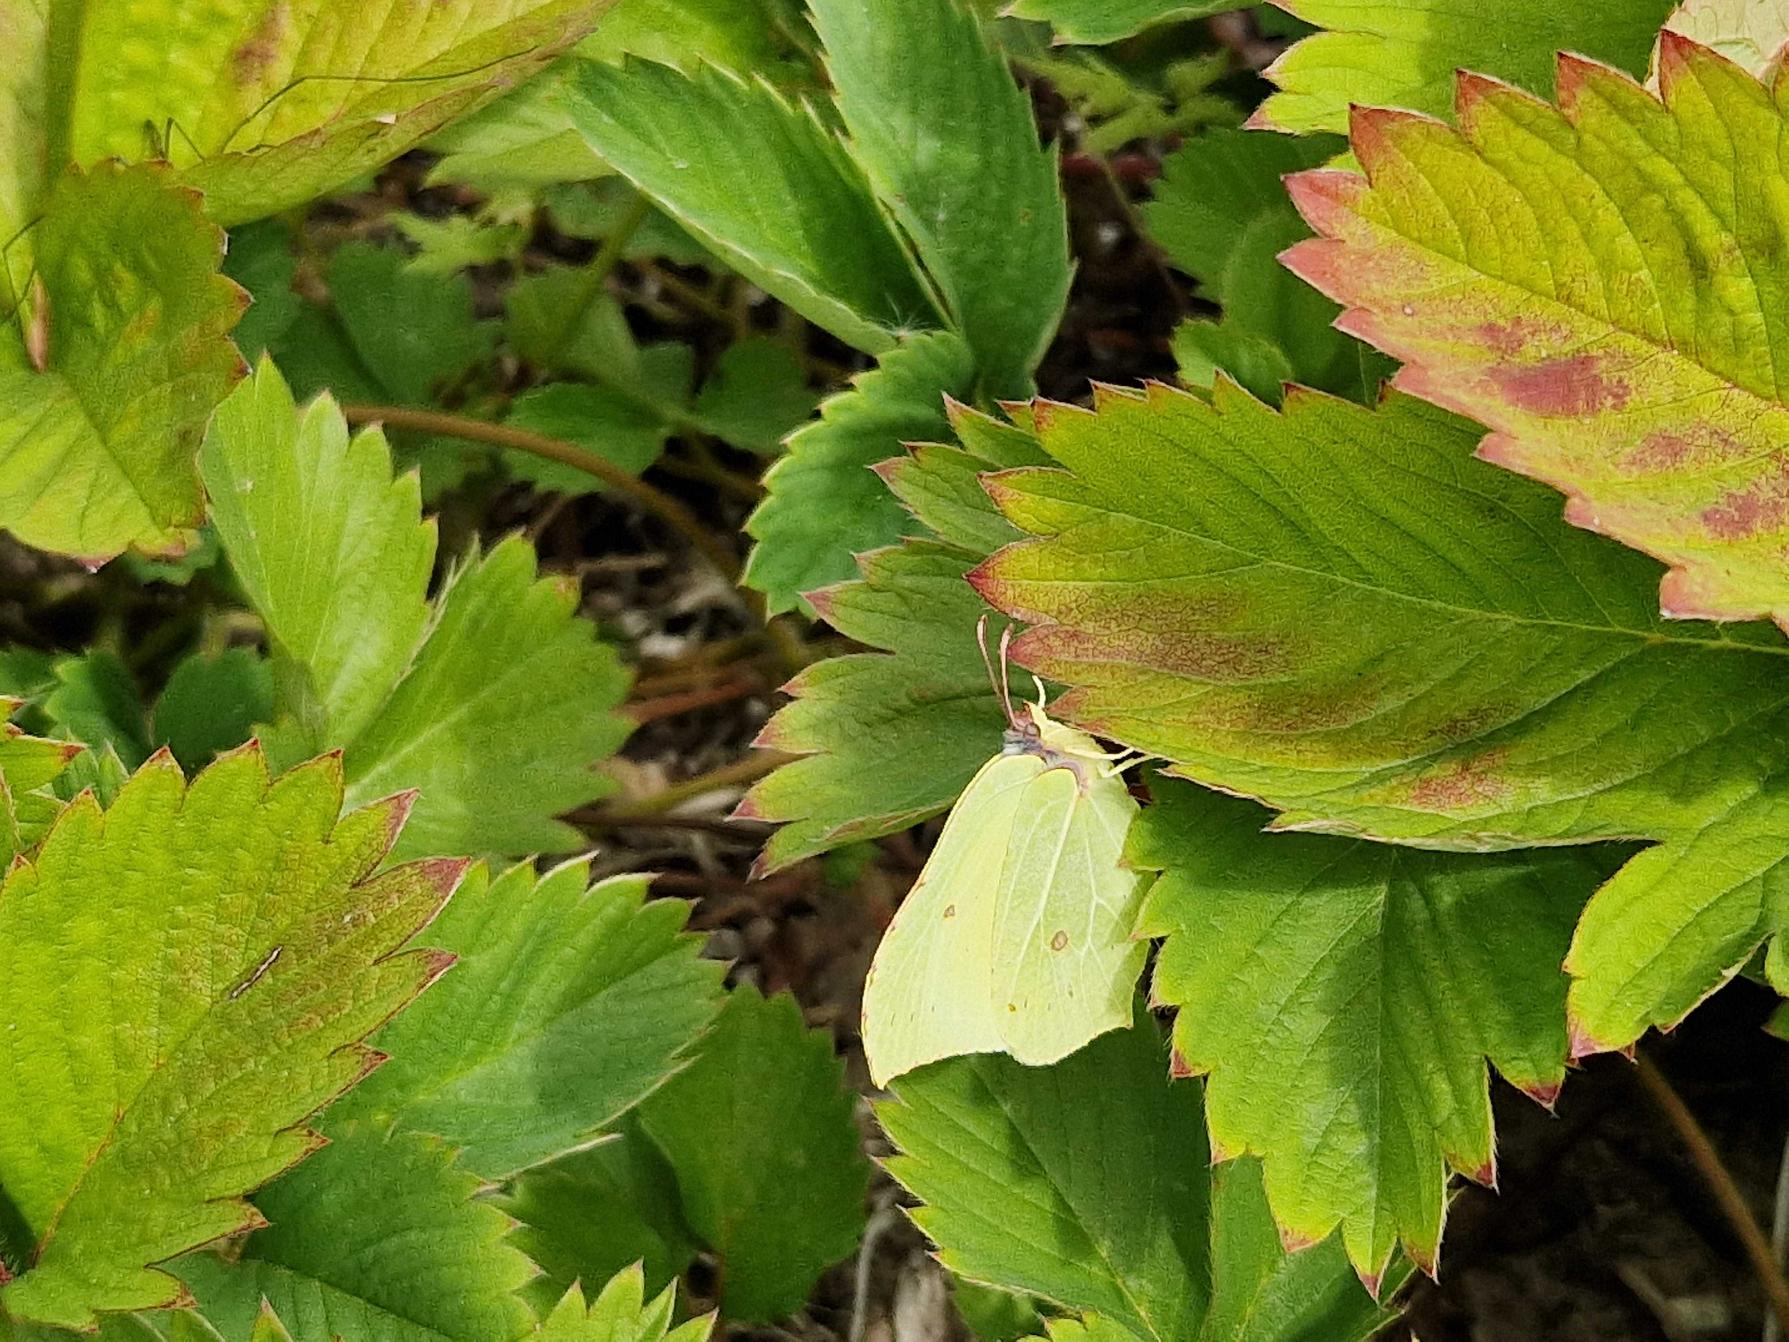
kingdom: Animalia
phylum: Arthropoda
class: Insecta
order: Lepidoptera
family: Pieridae
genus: Gonepteryx
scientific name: Gonepteryx rhamni
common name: Citronsommerfugl
